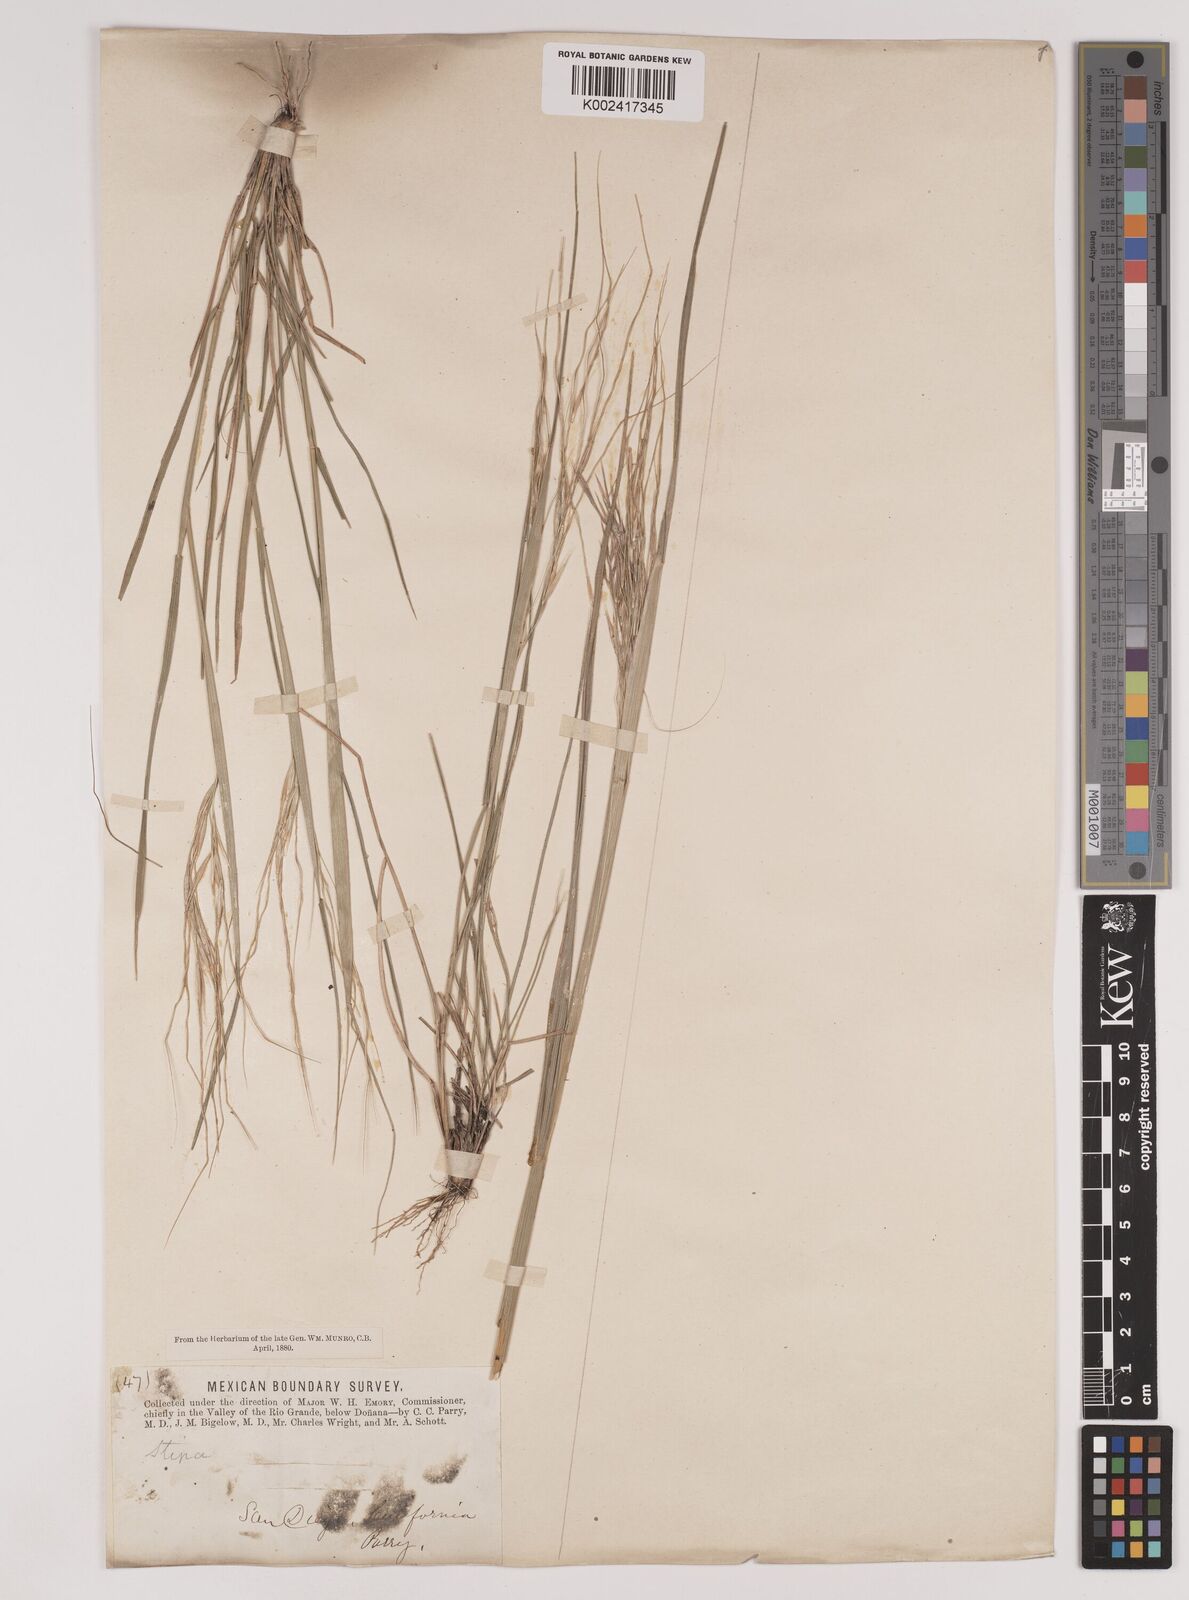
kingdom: Plantae
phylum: Tracheophyta
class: Liliopsida
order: Poales
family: Poaceae
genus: Nassella
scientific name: Nassella pulchra
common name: Purple needlegrass
